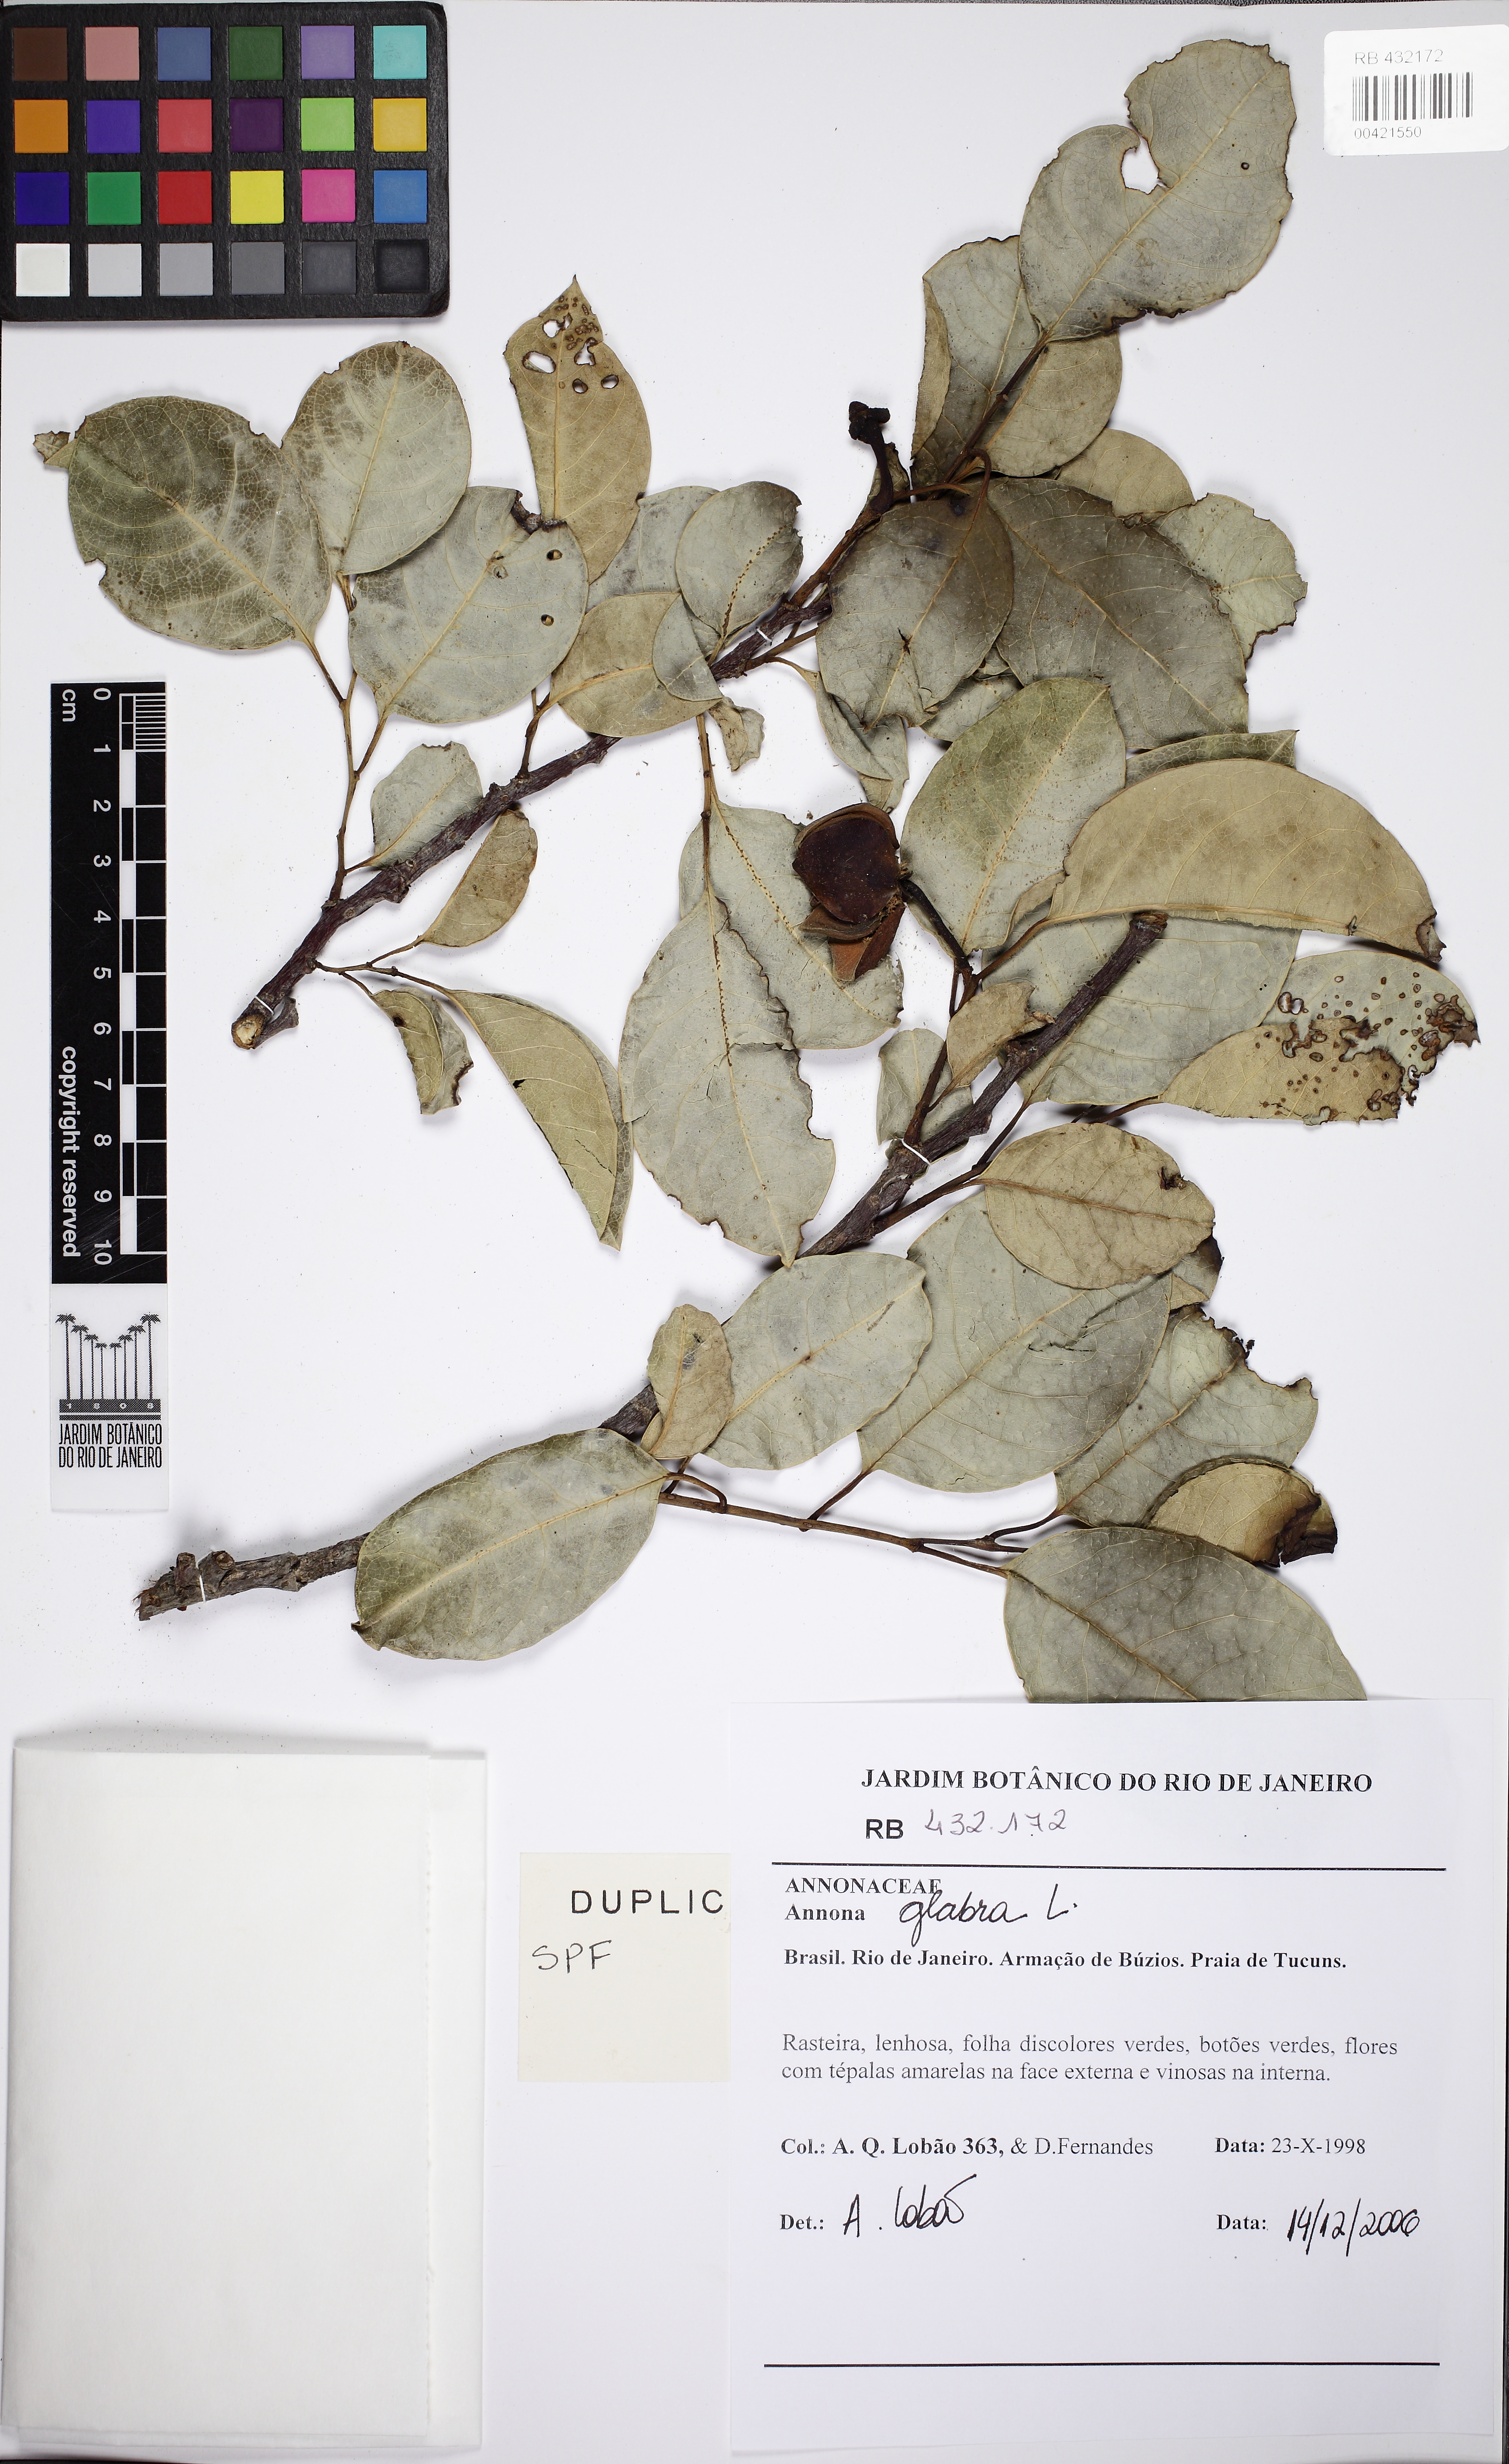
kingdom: Plantae
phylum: Tracheophyta
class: Magnoliopsida
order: Magnoliales
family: Annonaceae
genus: Annona
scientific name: Annona glabra
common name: Monkey apple
